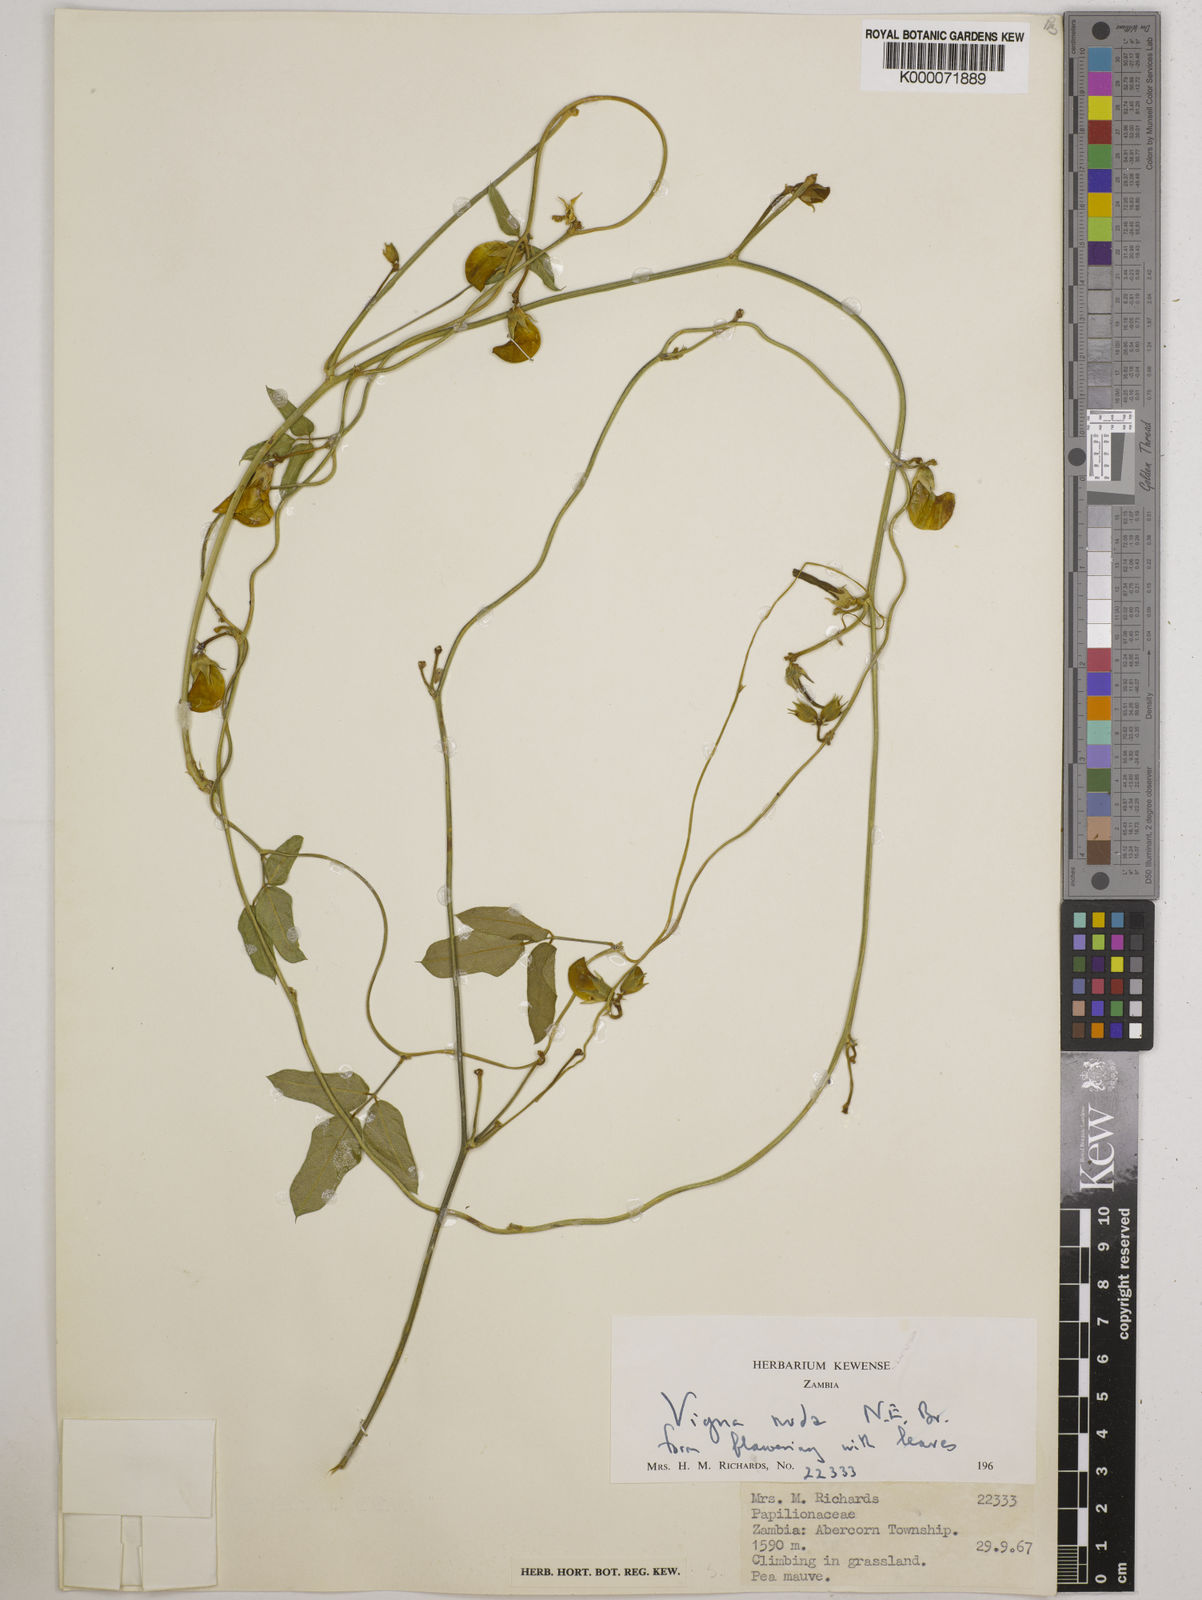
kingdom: Plantae
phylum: Tracheophyta
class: Magnoliopsida
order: Fabales
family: Fabaceae
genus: Vigna
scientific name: Vigna antunesii
